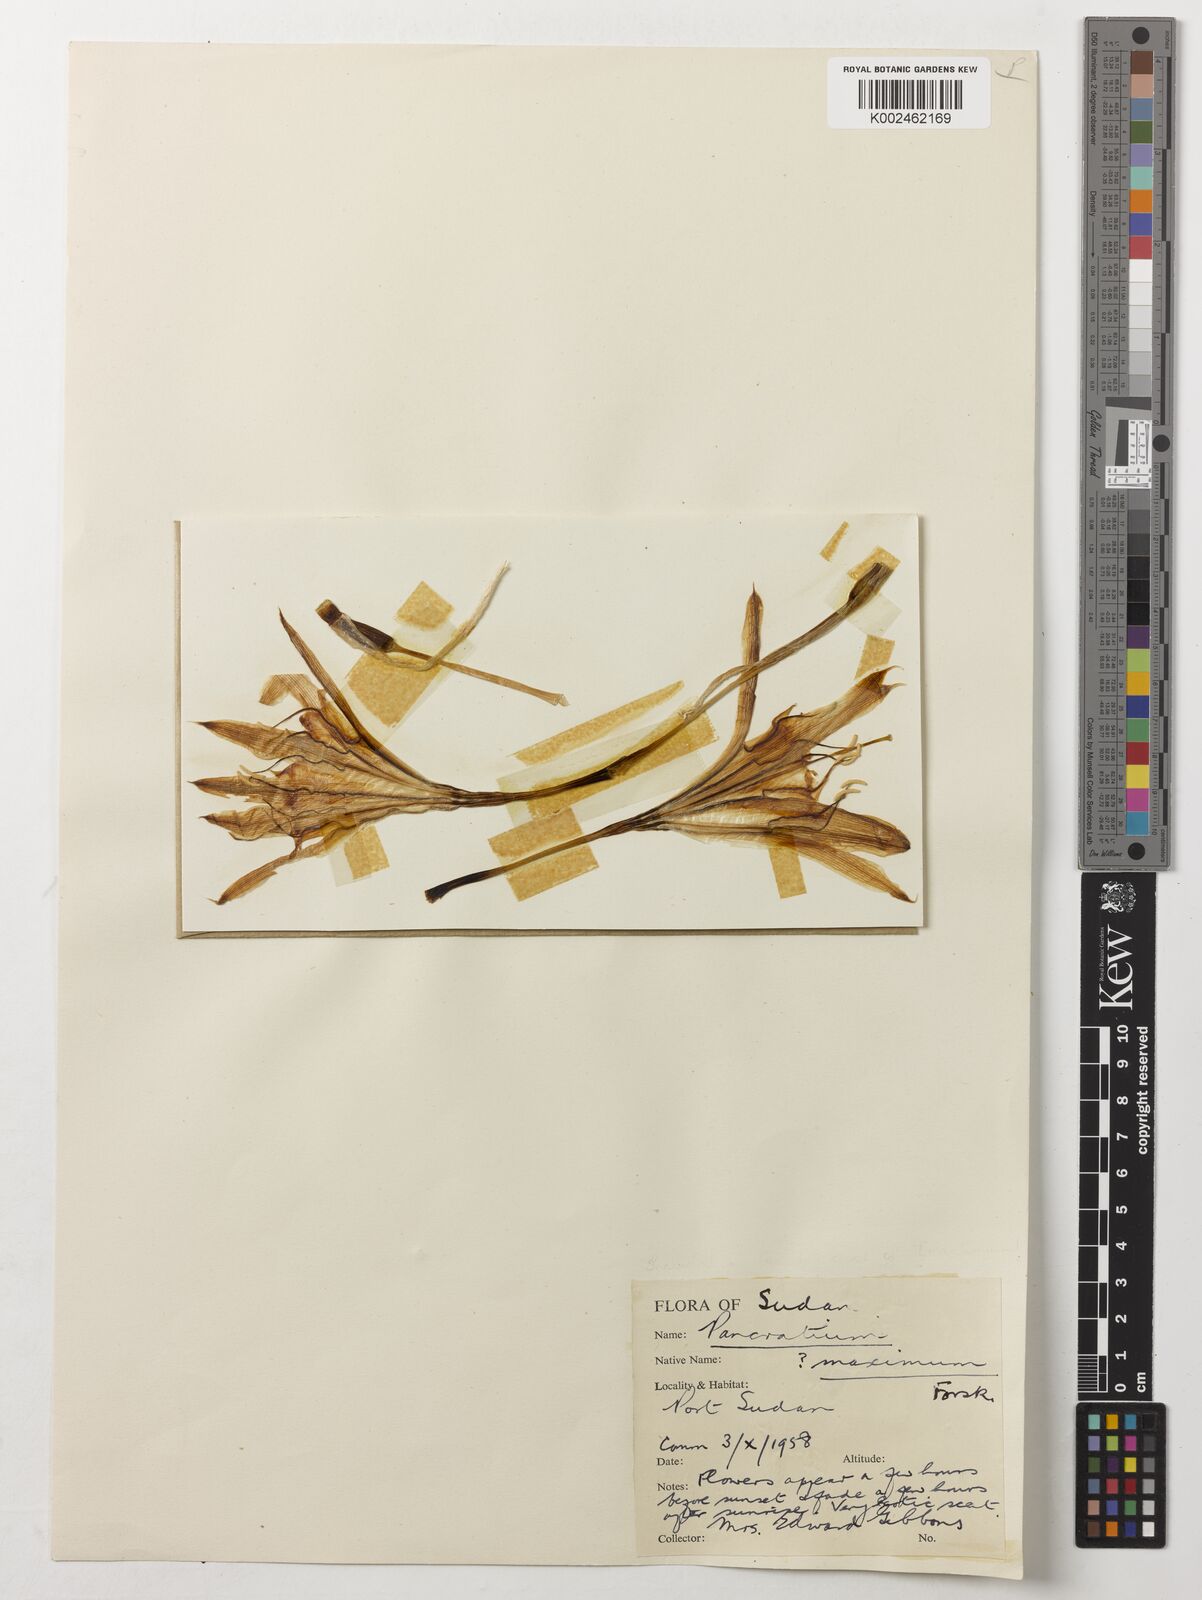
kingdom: Plantae
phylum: Tracheophyta
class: Liliopsida
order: Asparagales
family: Amaryllidaceae
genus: Pancratium
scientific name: Pancratium maximum
